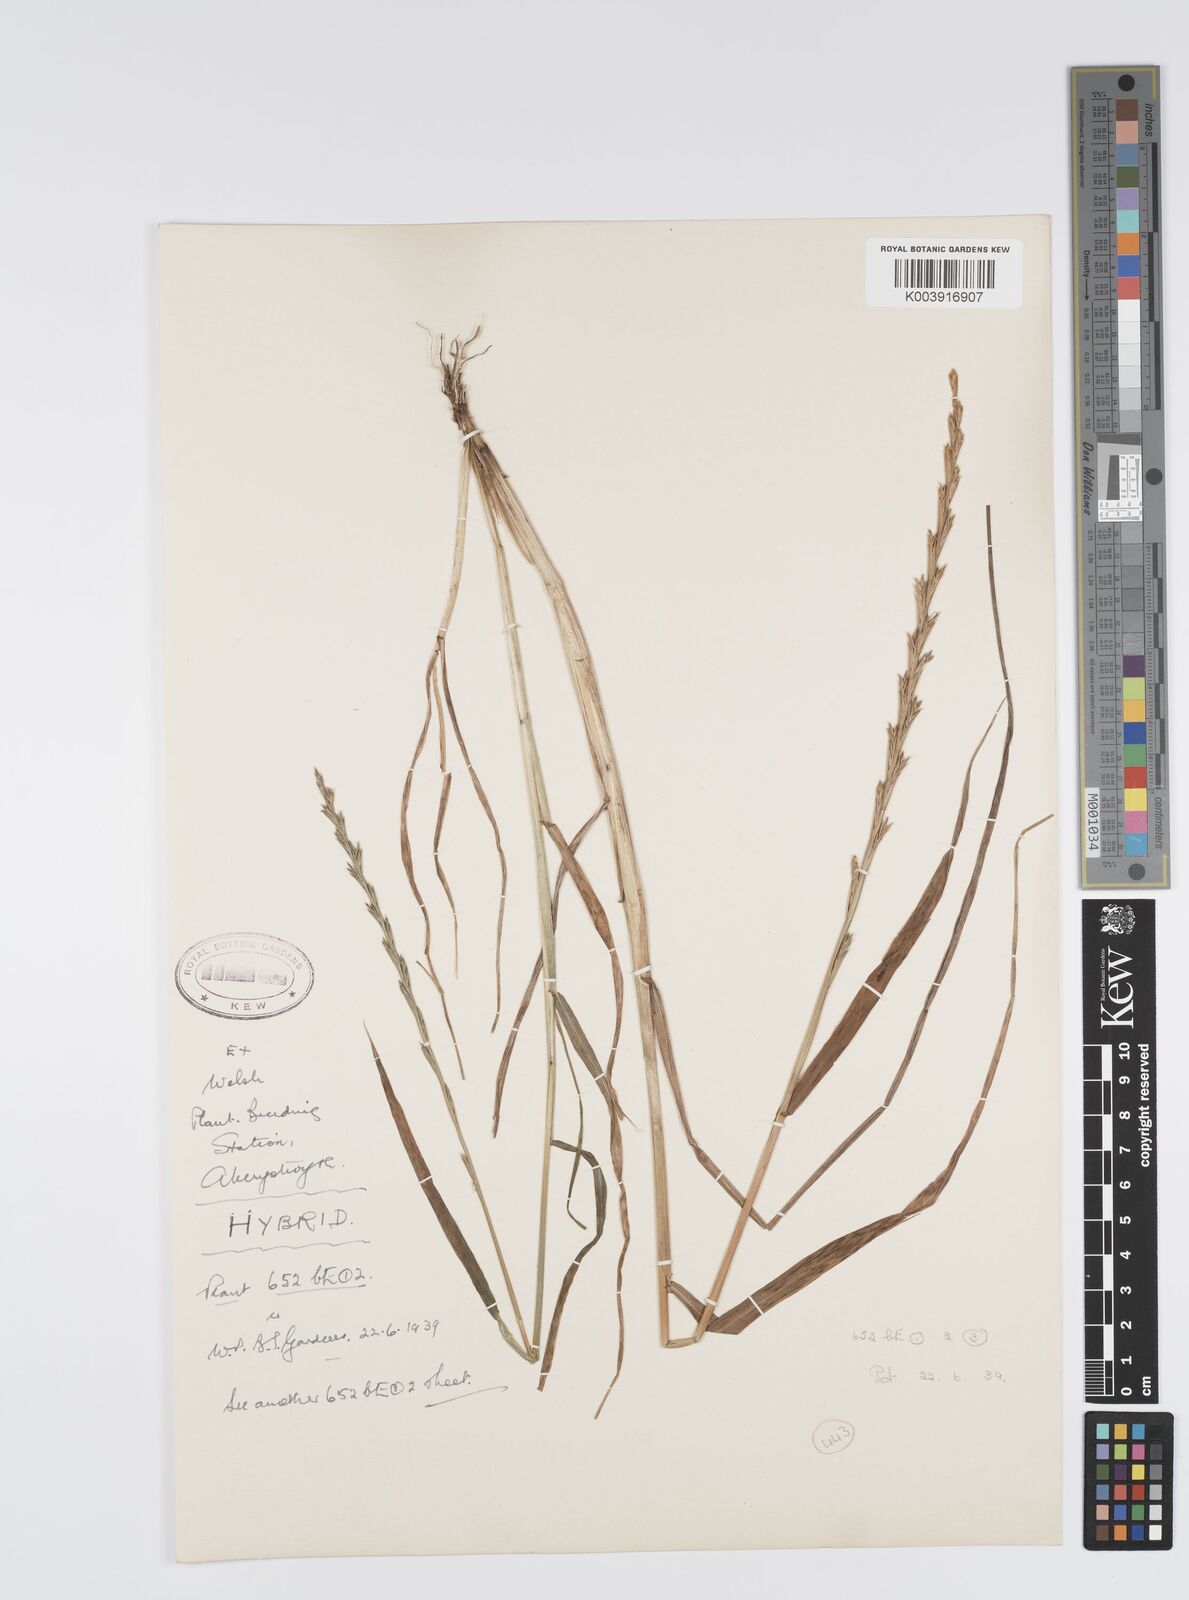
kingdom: Plantae
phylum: Tracheophyta
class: Liliopsida
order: Poales
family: Poaceae
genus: Lolium
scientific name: Lolium multiflorum
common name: Annual ryegrass
